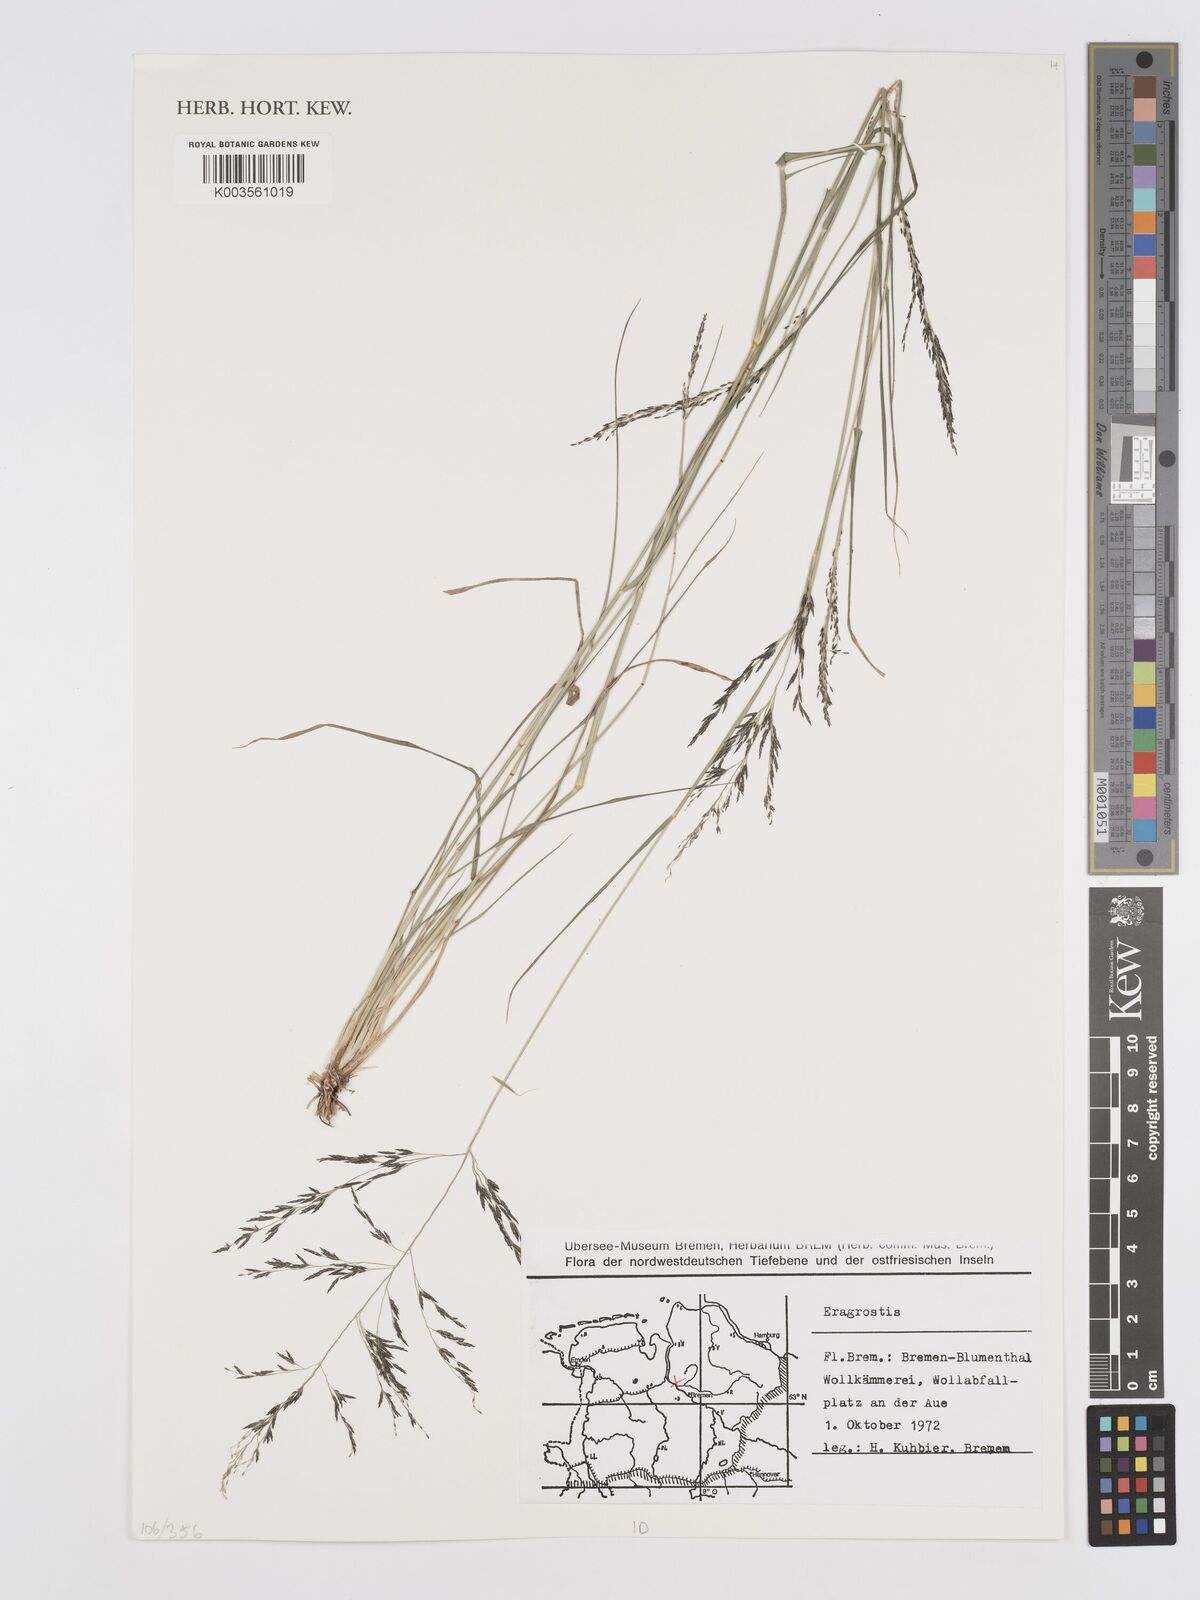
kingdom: Plantae
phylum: Tracheophyta
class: Liliopsida
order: Poales
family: Poaceae
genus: Eragrostis
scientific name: Eragrostis
